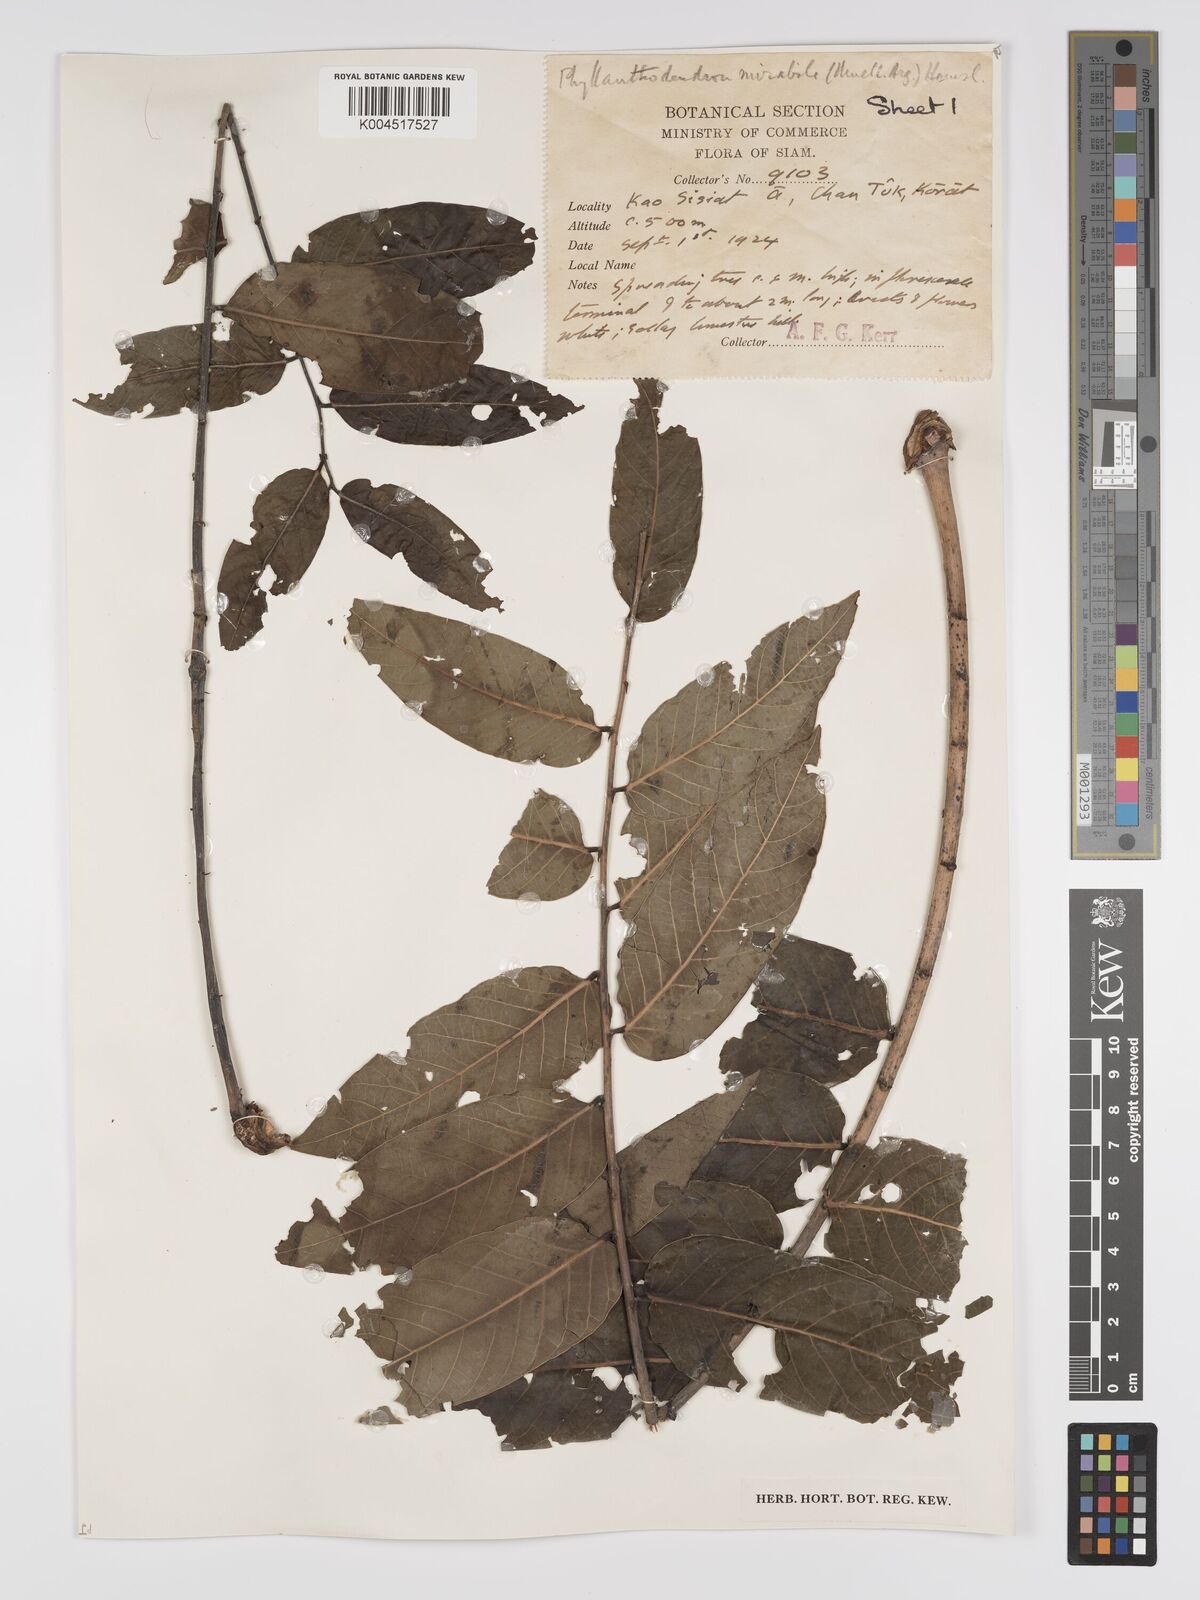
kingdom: Plantae
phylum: Tracheophyta
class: Magnoliopsida
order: Malpighiales
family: Phyllanthaceae
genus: Phyllanthus
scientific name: Phyllanthus mirabilis
